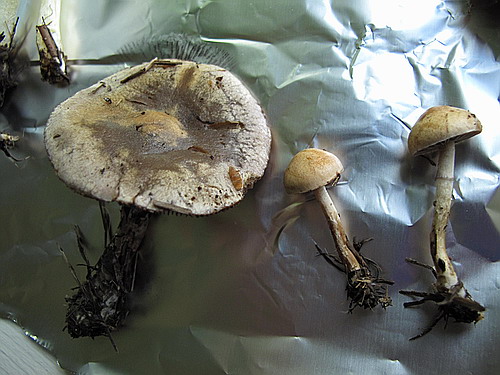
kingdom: Fungi
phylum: Basidiomycota
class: Agaricomycetes
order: Agaricales
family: Strophariaceae
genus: Protostropharia
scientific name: Protostropharia semiglobata
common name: halvkugleformet bredblad
